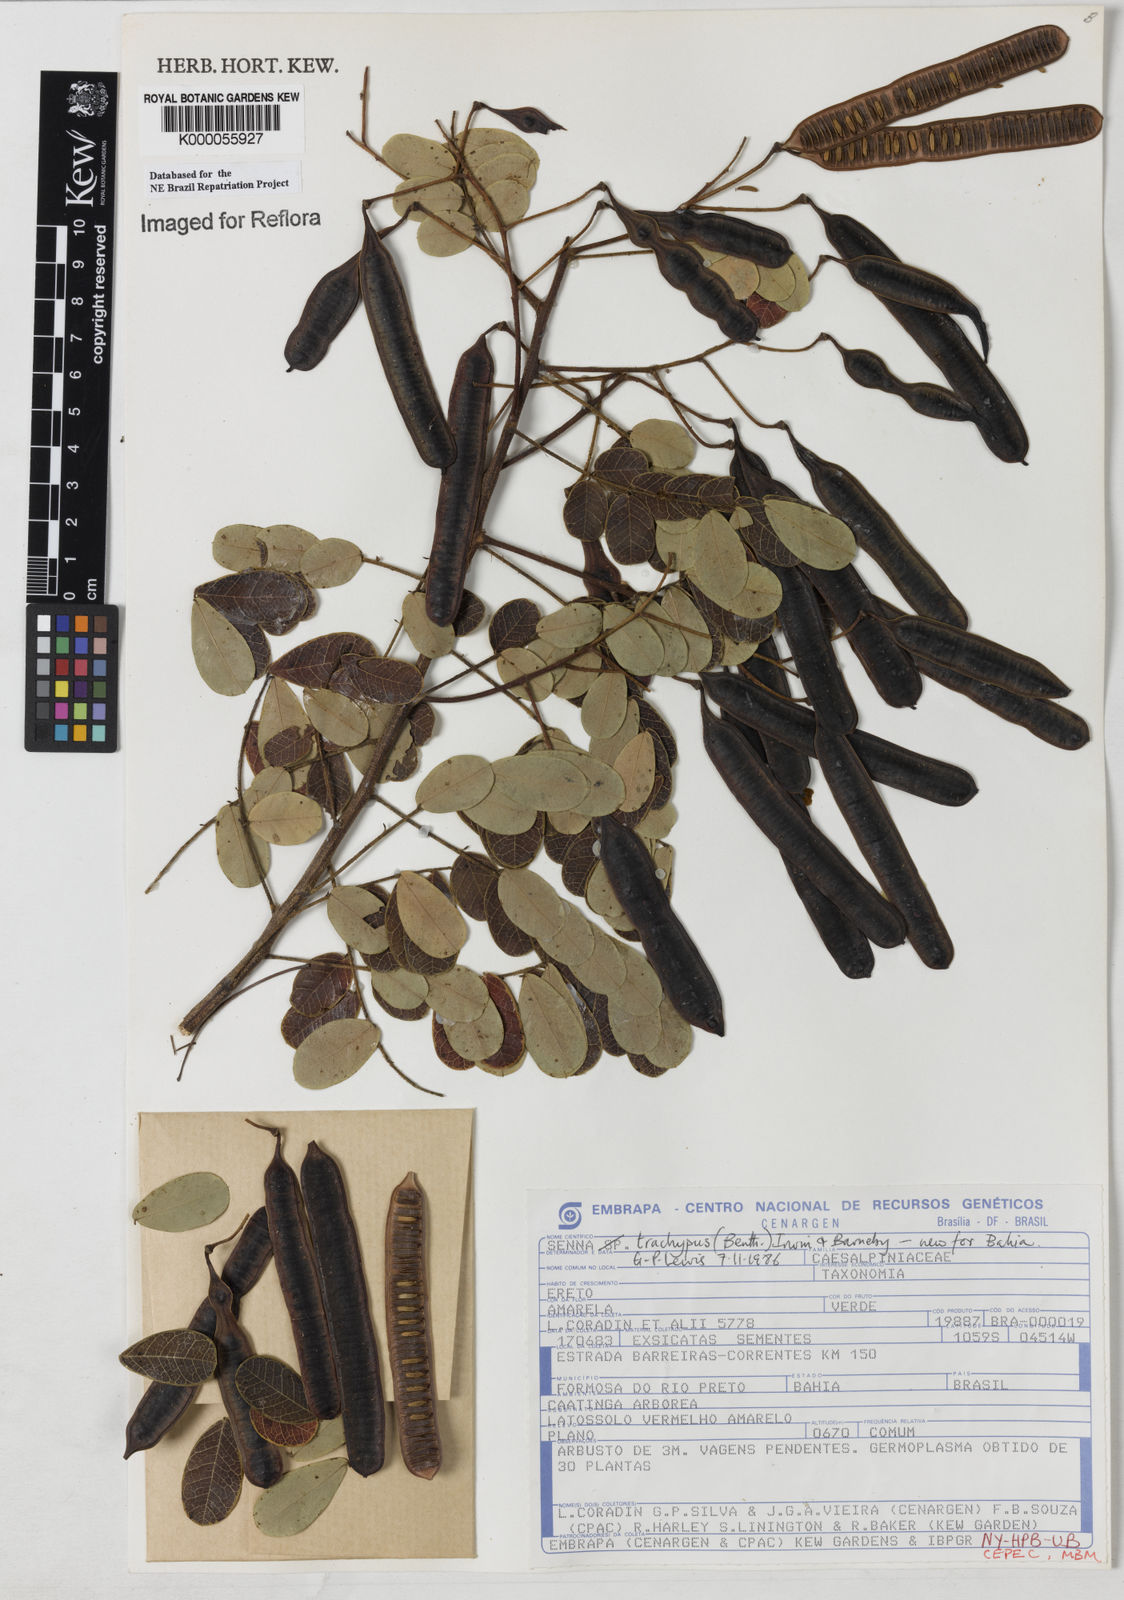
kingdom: Plantae
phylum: Tracheophyta
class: Magnoliopsida
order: Fabales
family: Fabaceae
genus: Senna
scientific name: Senna trachypus
